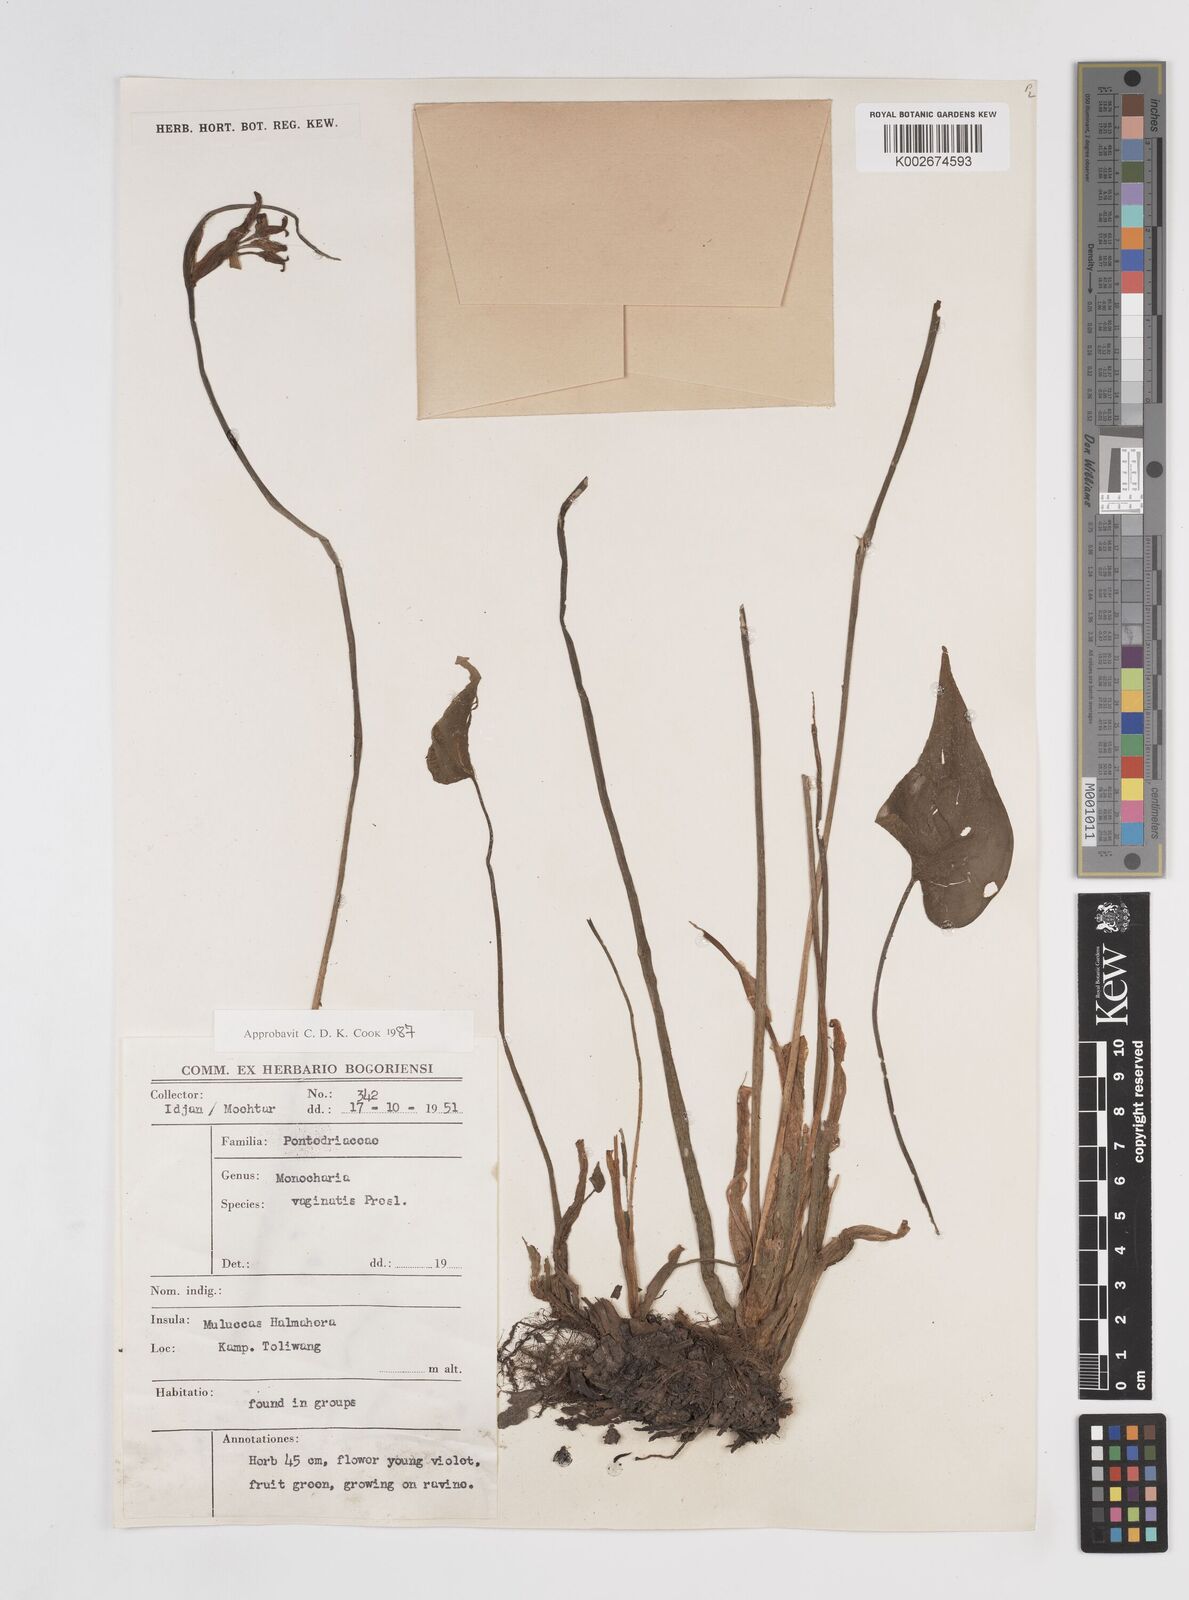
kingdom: Plantae
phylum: Tracheophyta
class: Liliopsida
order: Commelinales
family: Pontederiaceae
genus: Pontederia
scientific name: Pontederia vaginalis
